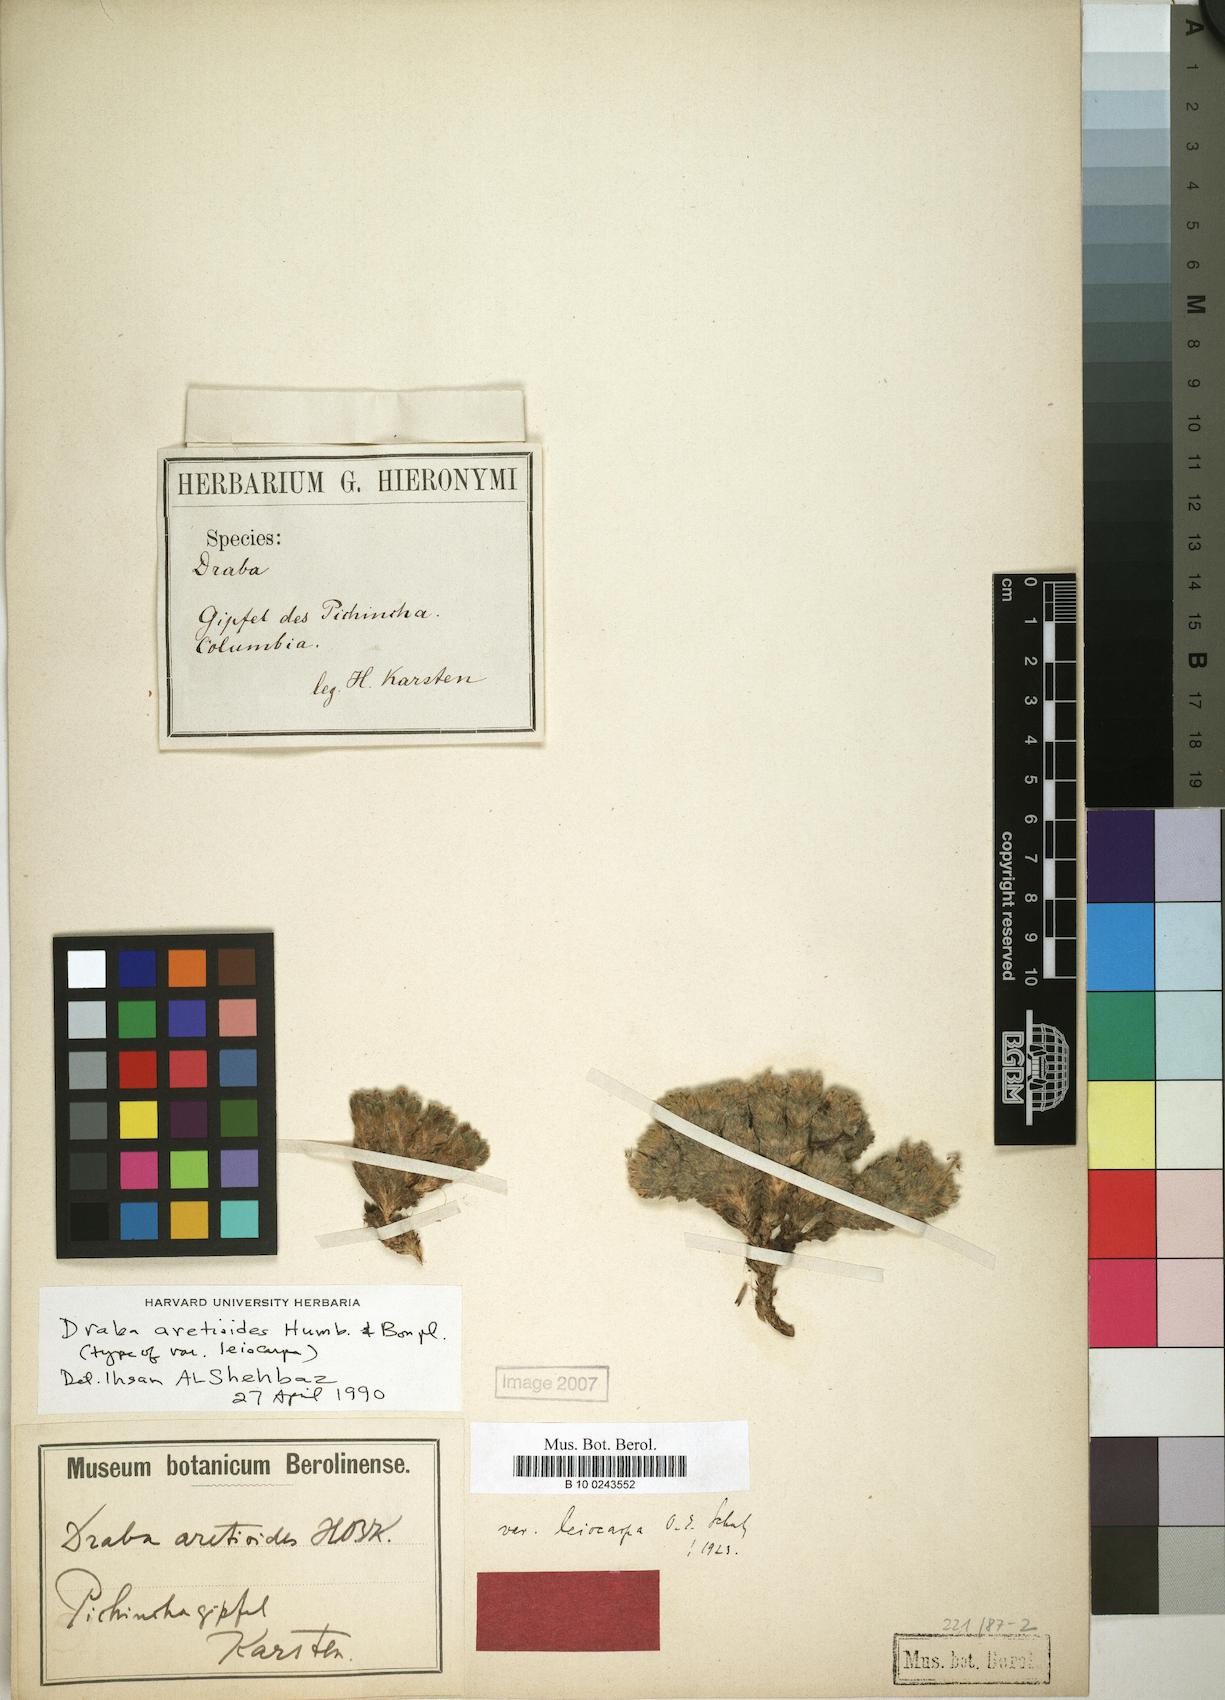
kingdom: Plantae
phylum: Tracheophyta
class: Magnoliopsida
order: Brassicales
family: Brassicaceae
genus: Draba
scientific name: Draba aretioides
